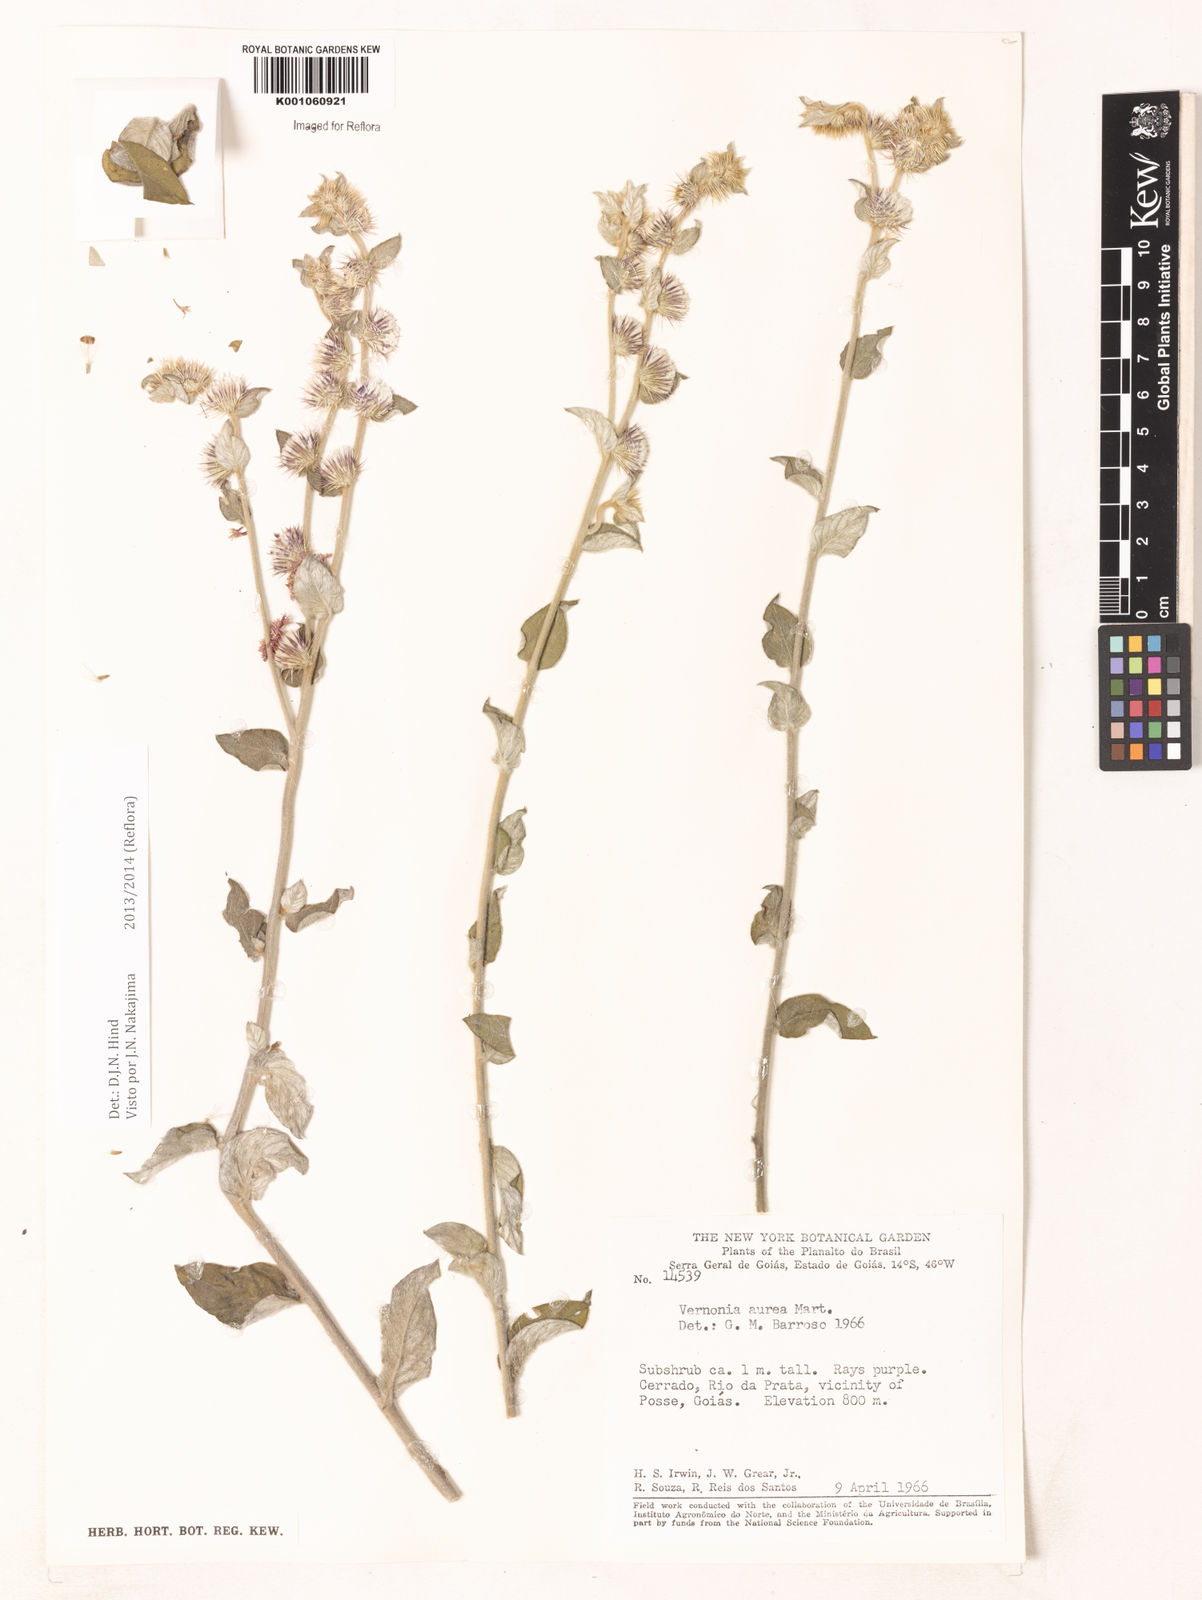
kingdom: Plantae
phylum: Tracheophyta
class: Magnoliopsida
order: Asterales
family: Asteraceae
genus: Lepidaploa
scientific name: Lepidaploa aurea
